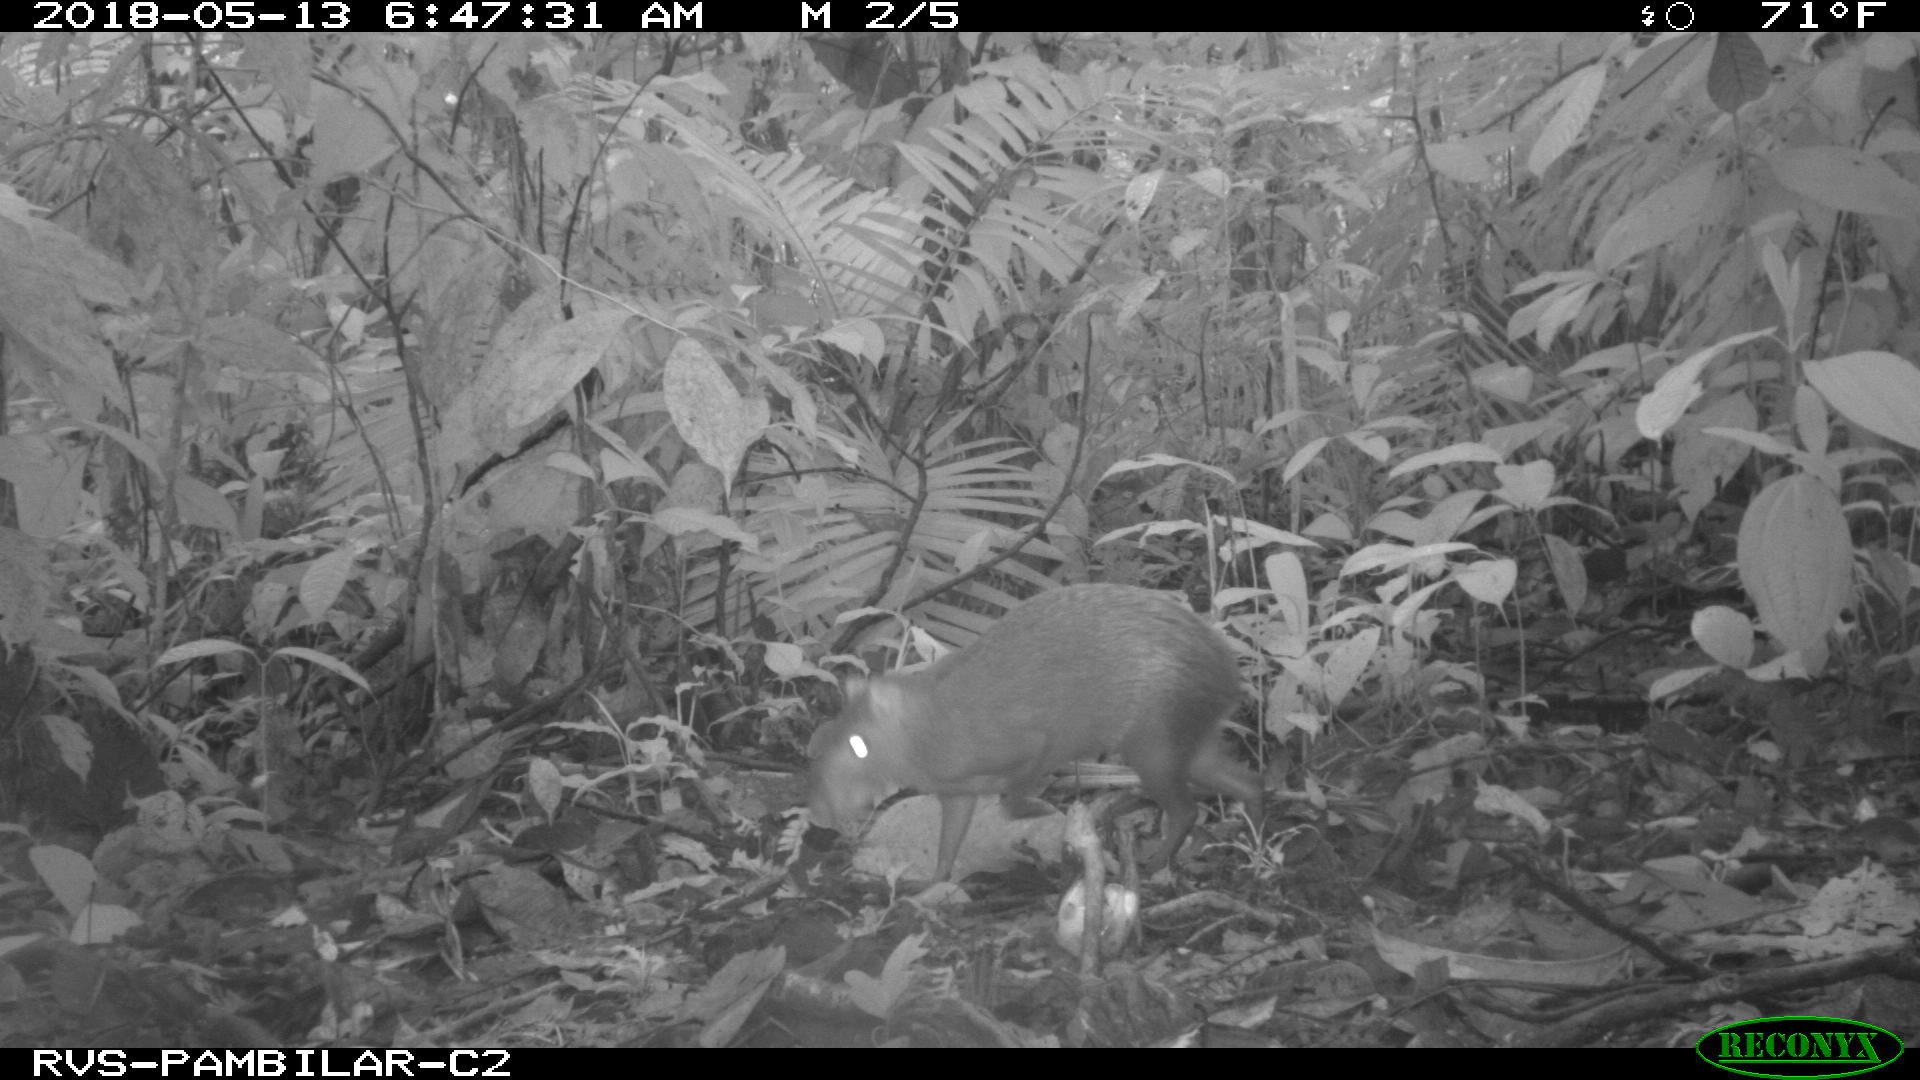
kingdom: Animalia
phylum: Chordata
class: Mammalia
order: Rodentia
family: Dasyproctidae
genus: Dasyprocta
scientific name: Dasyprocta punctata
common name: Central american agouti
